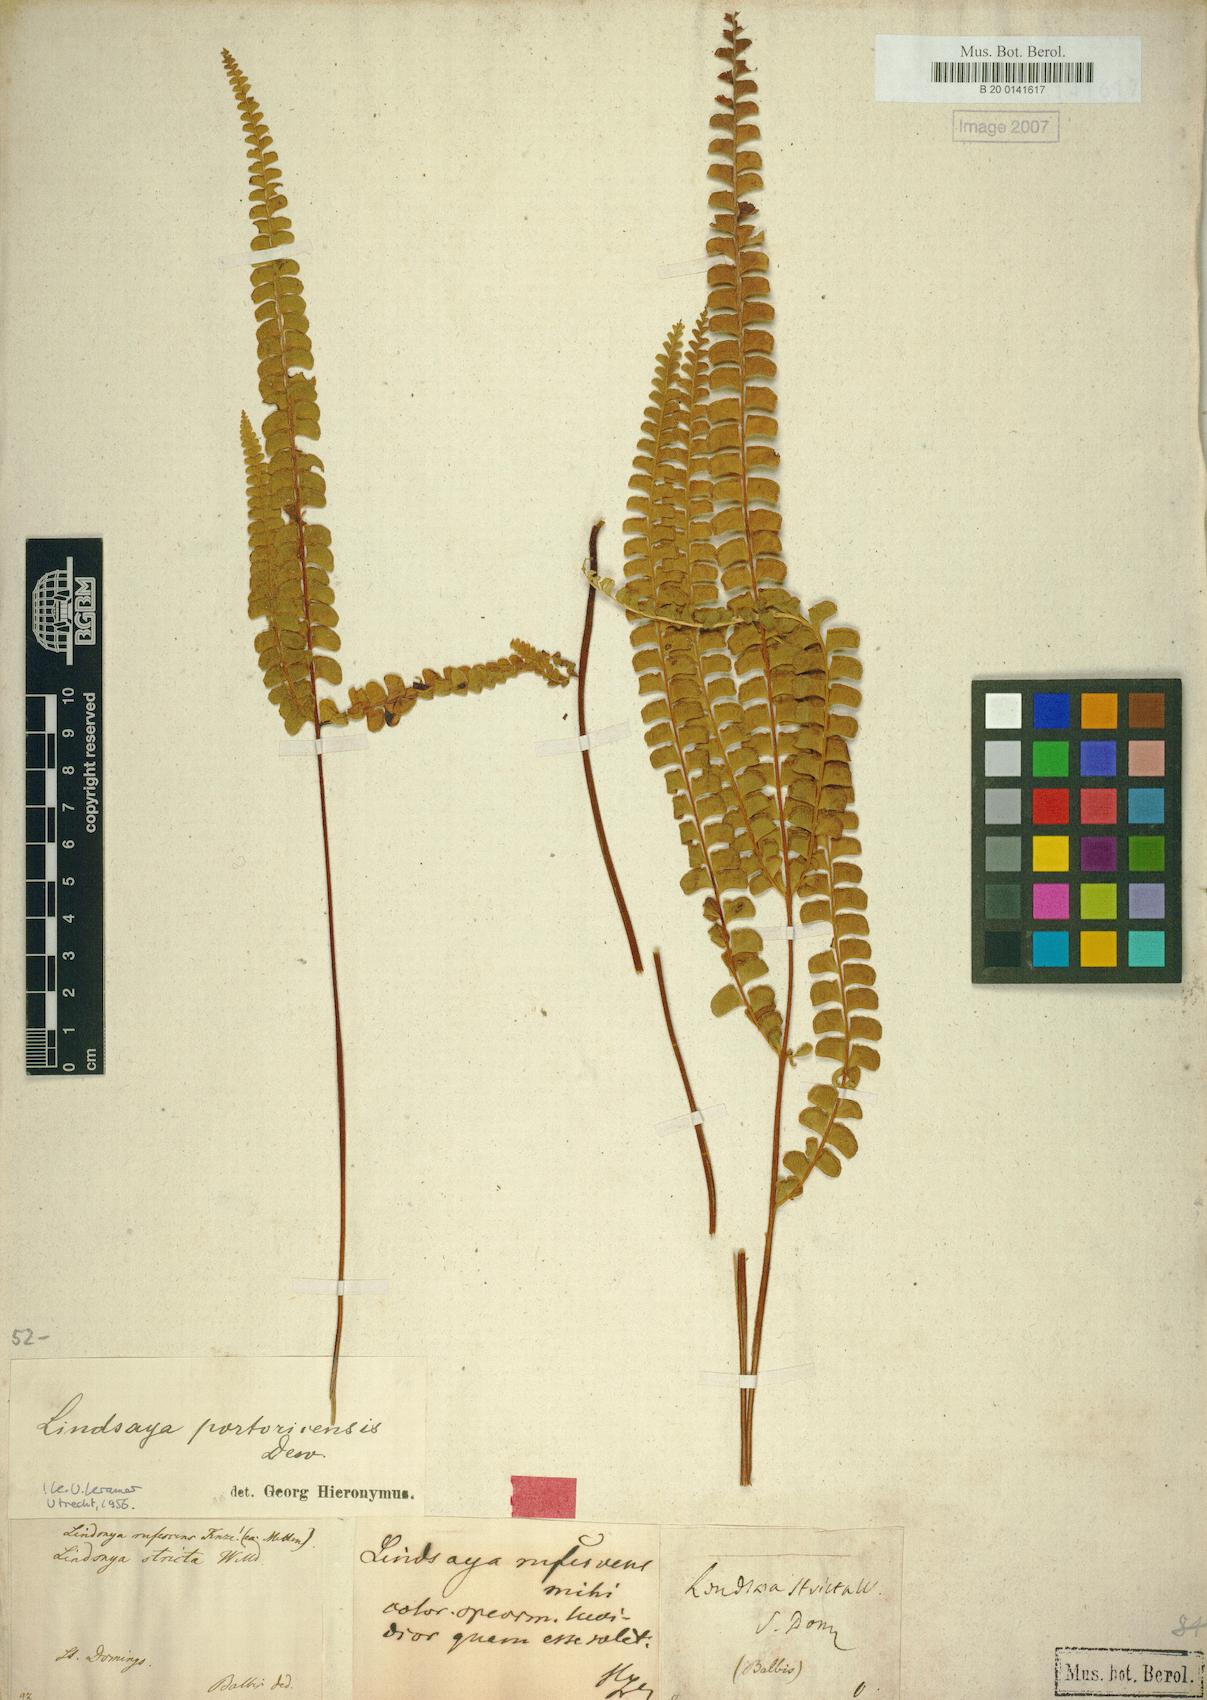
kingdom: Plantae
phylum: Tracheophyta
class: Polypodiopsida
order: Polypodiales
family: Lindsaeaceae
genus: Lindsaea
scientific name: Lindsaea portoricensis
